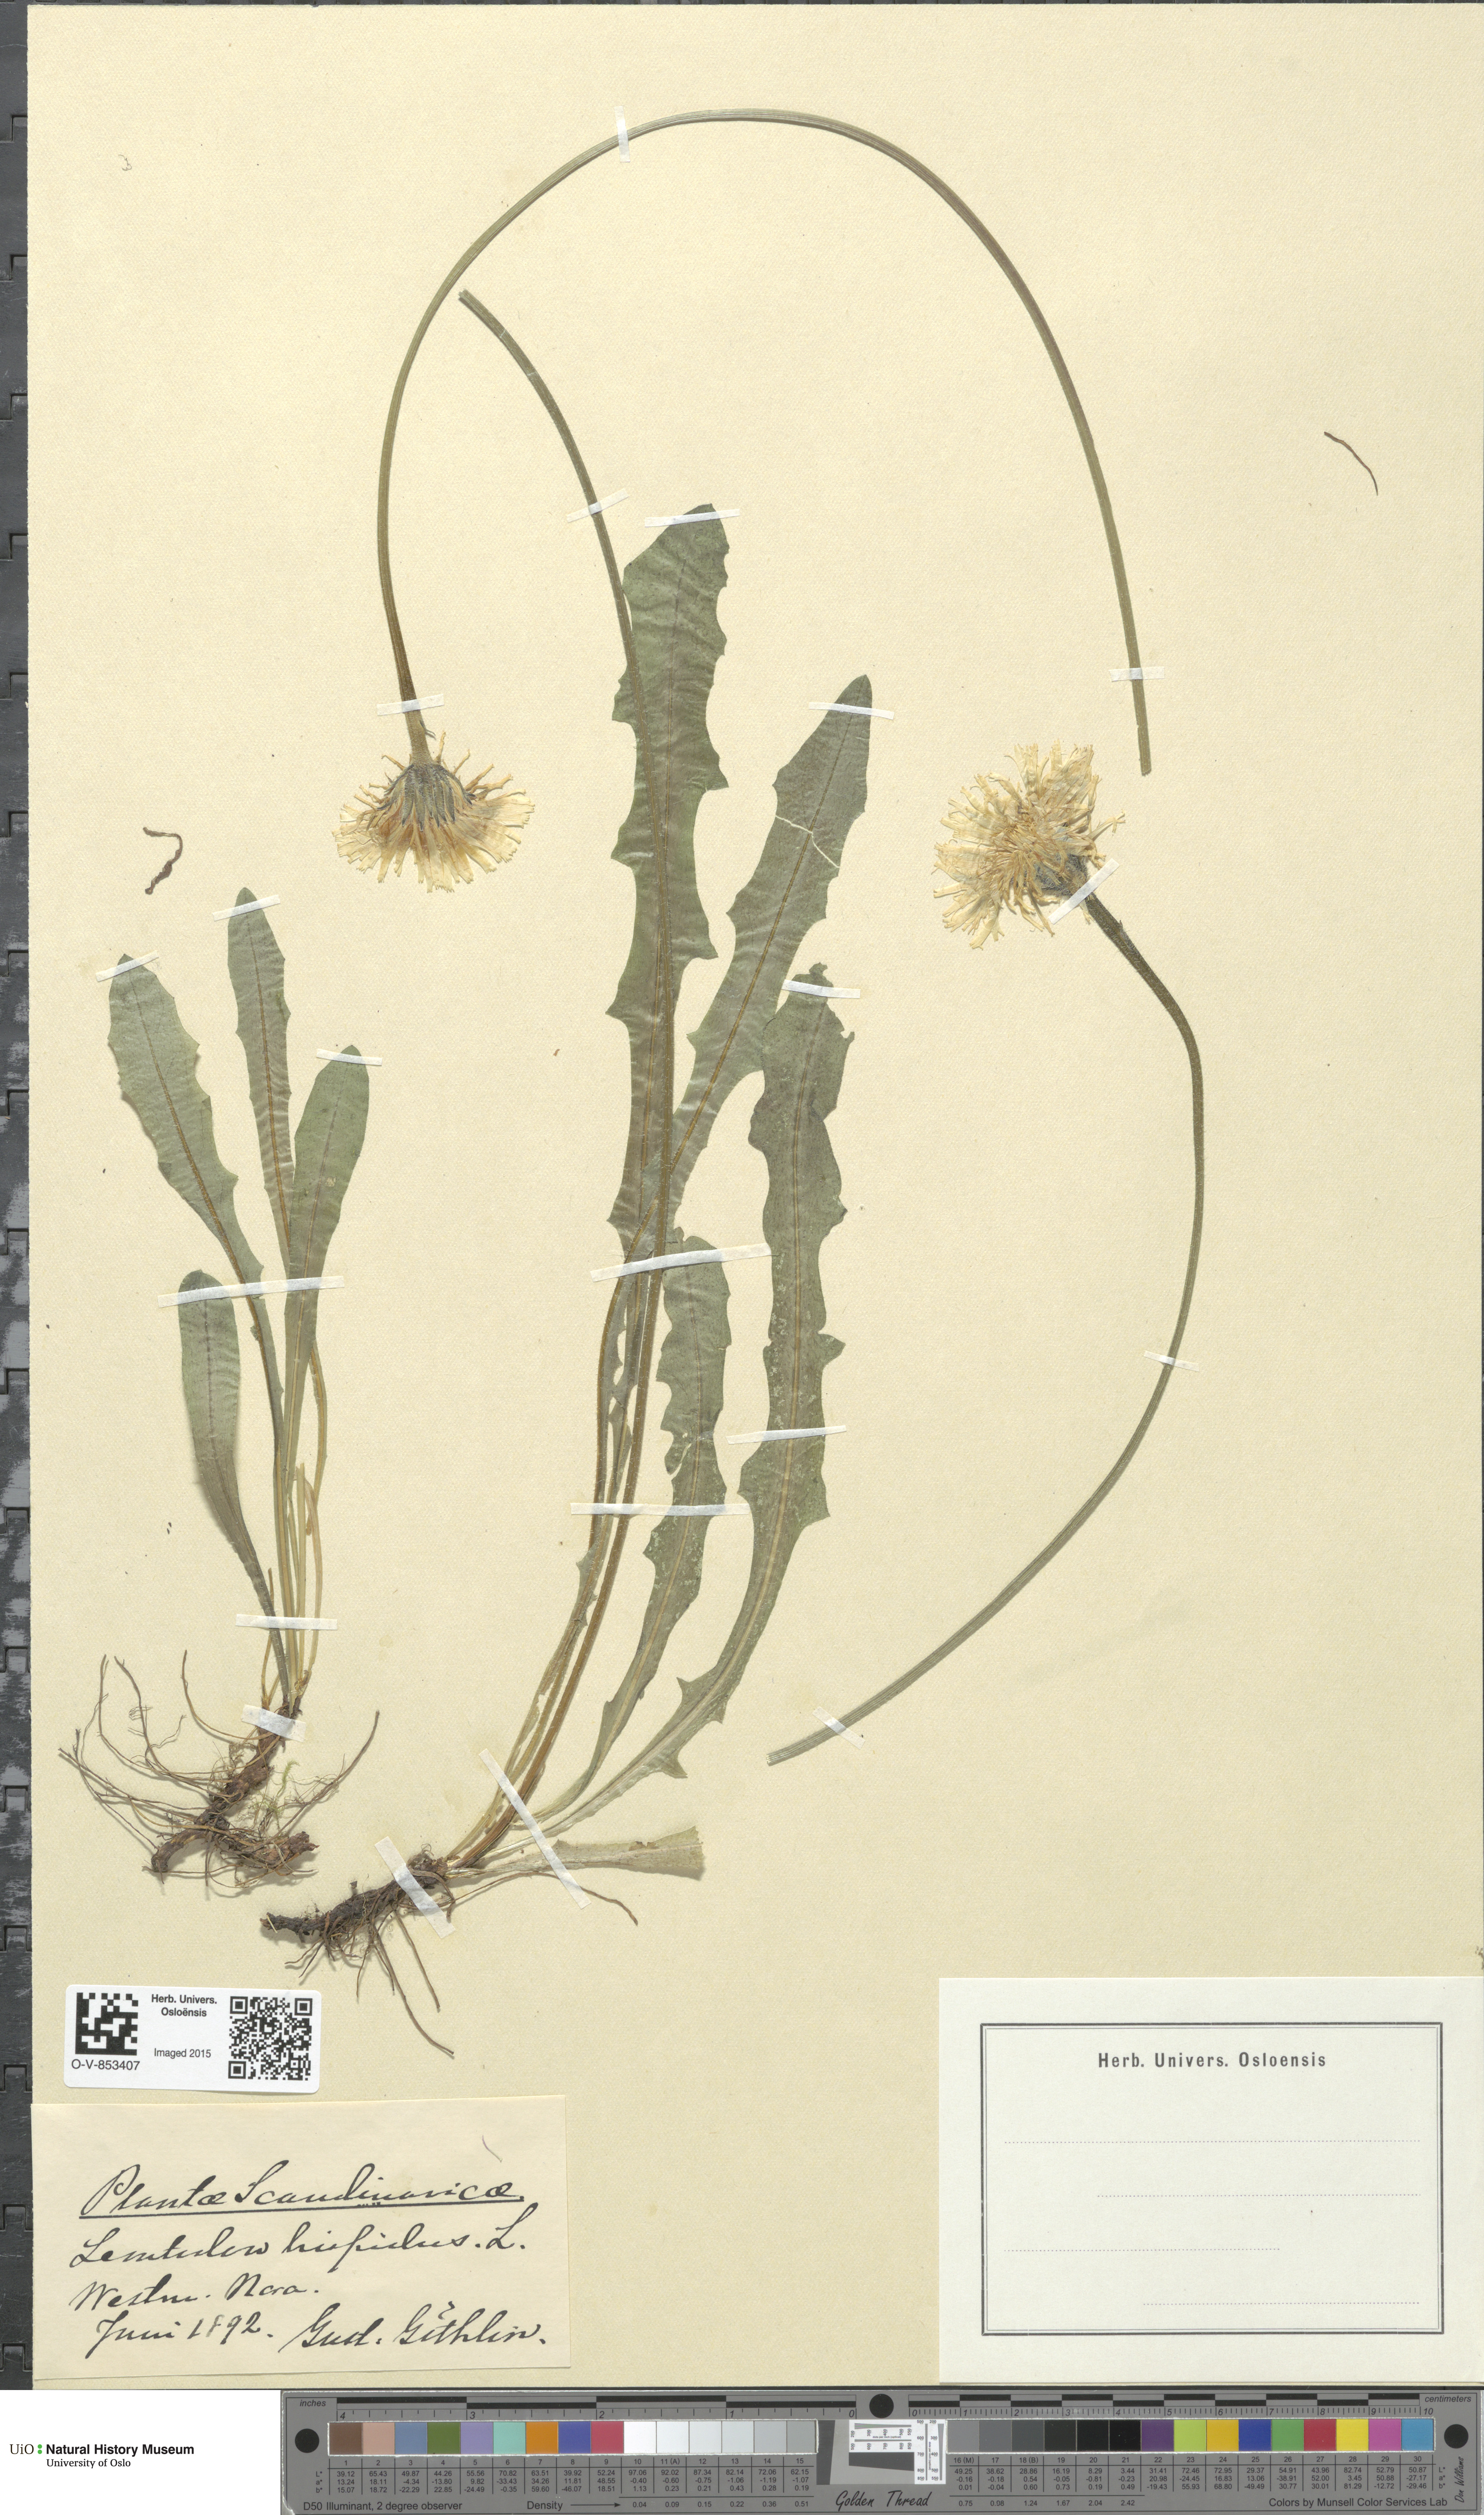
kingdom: Plantae
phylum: Tracheophyta
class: Magnoliopsida
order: Asterales
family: Asteraceae
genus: Leontodon
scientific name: Leontodon hispidus
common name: Rough hawkbit
